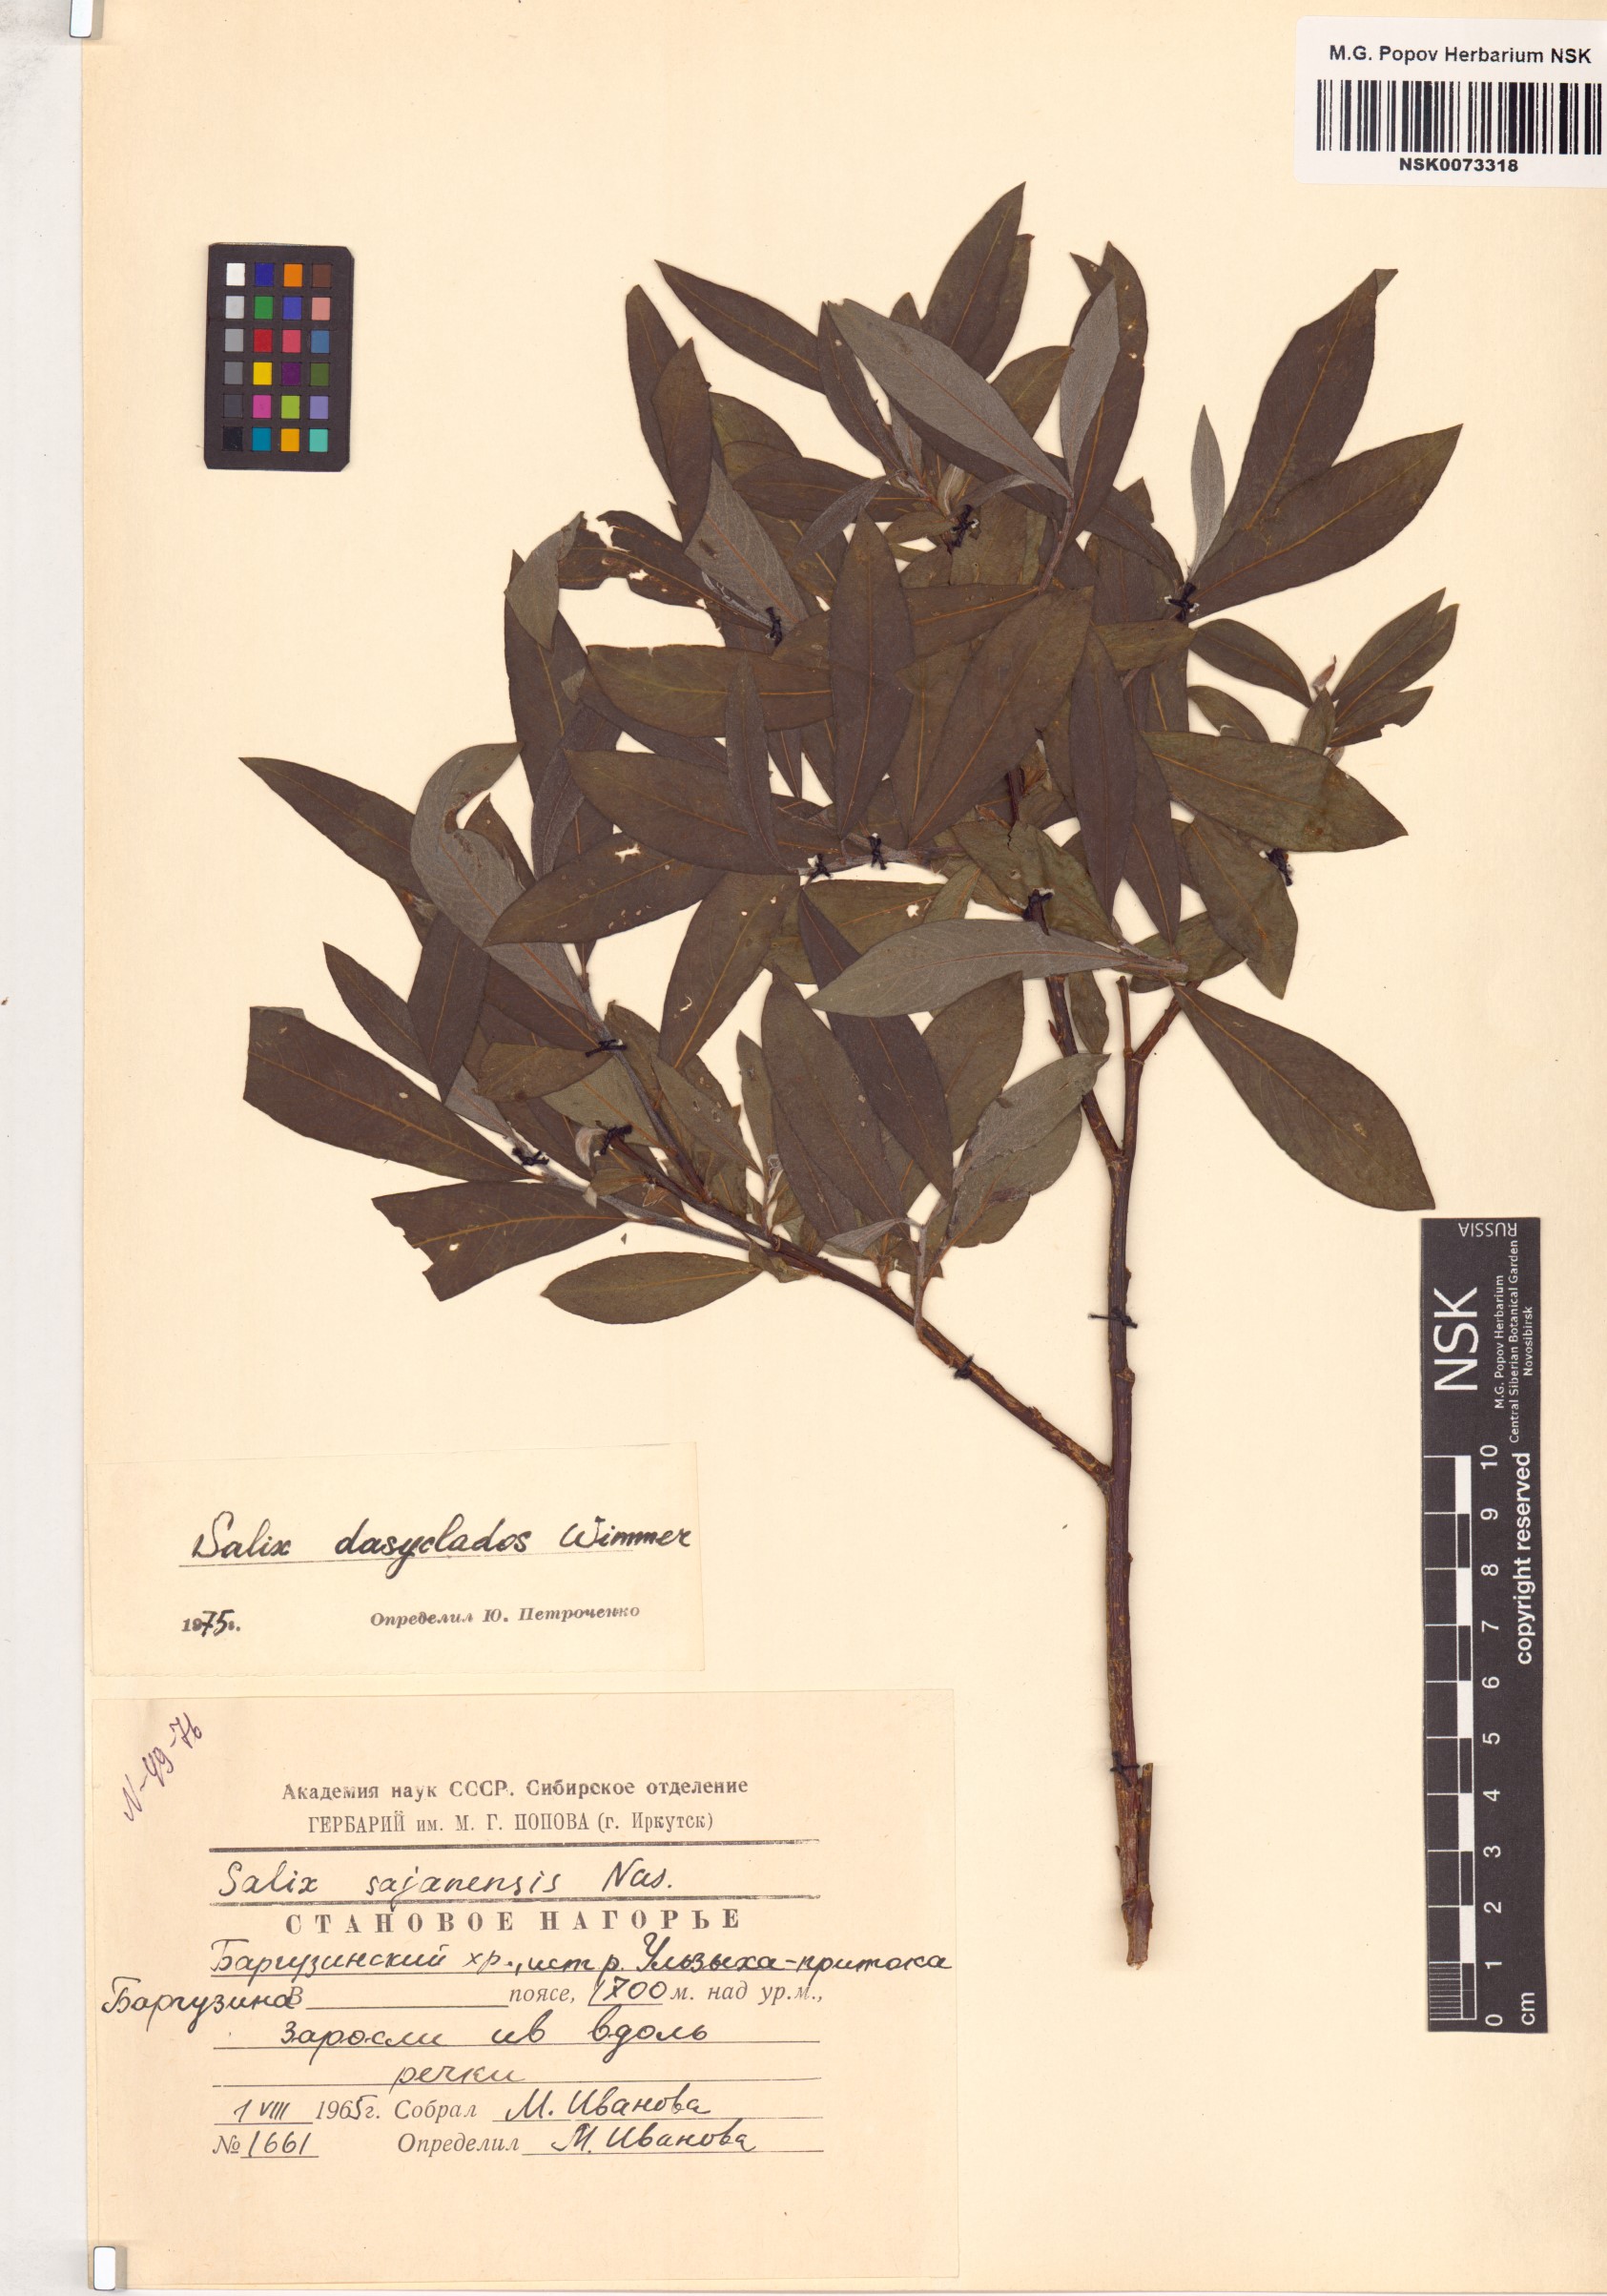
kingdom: Plantae
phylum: Tracheophyta
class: Magnoliopsida
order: Malpighiales
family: Salicaceae
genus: Salix
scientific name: Salix gmelinii
